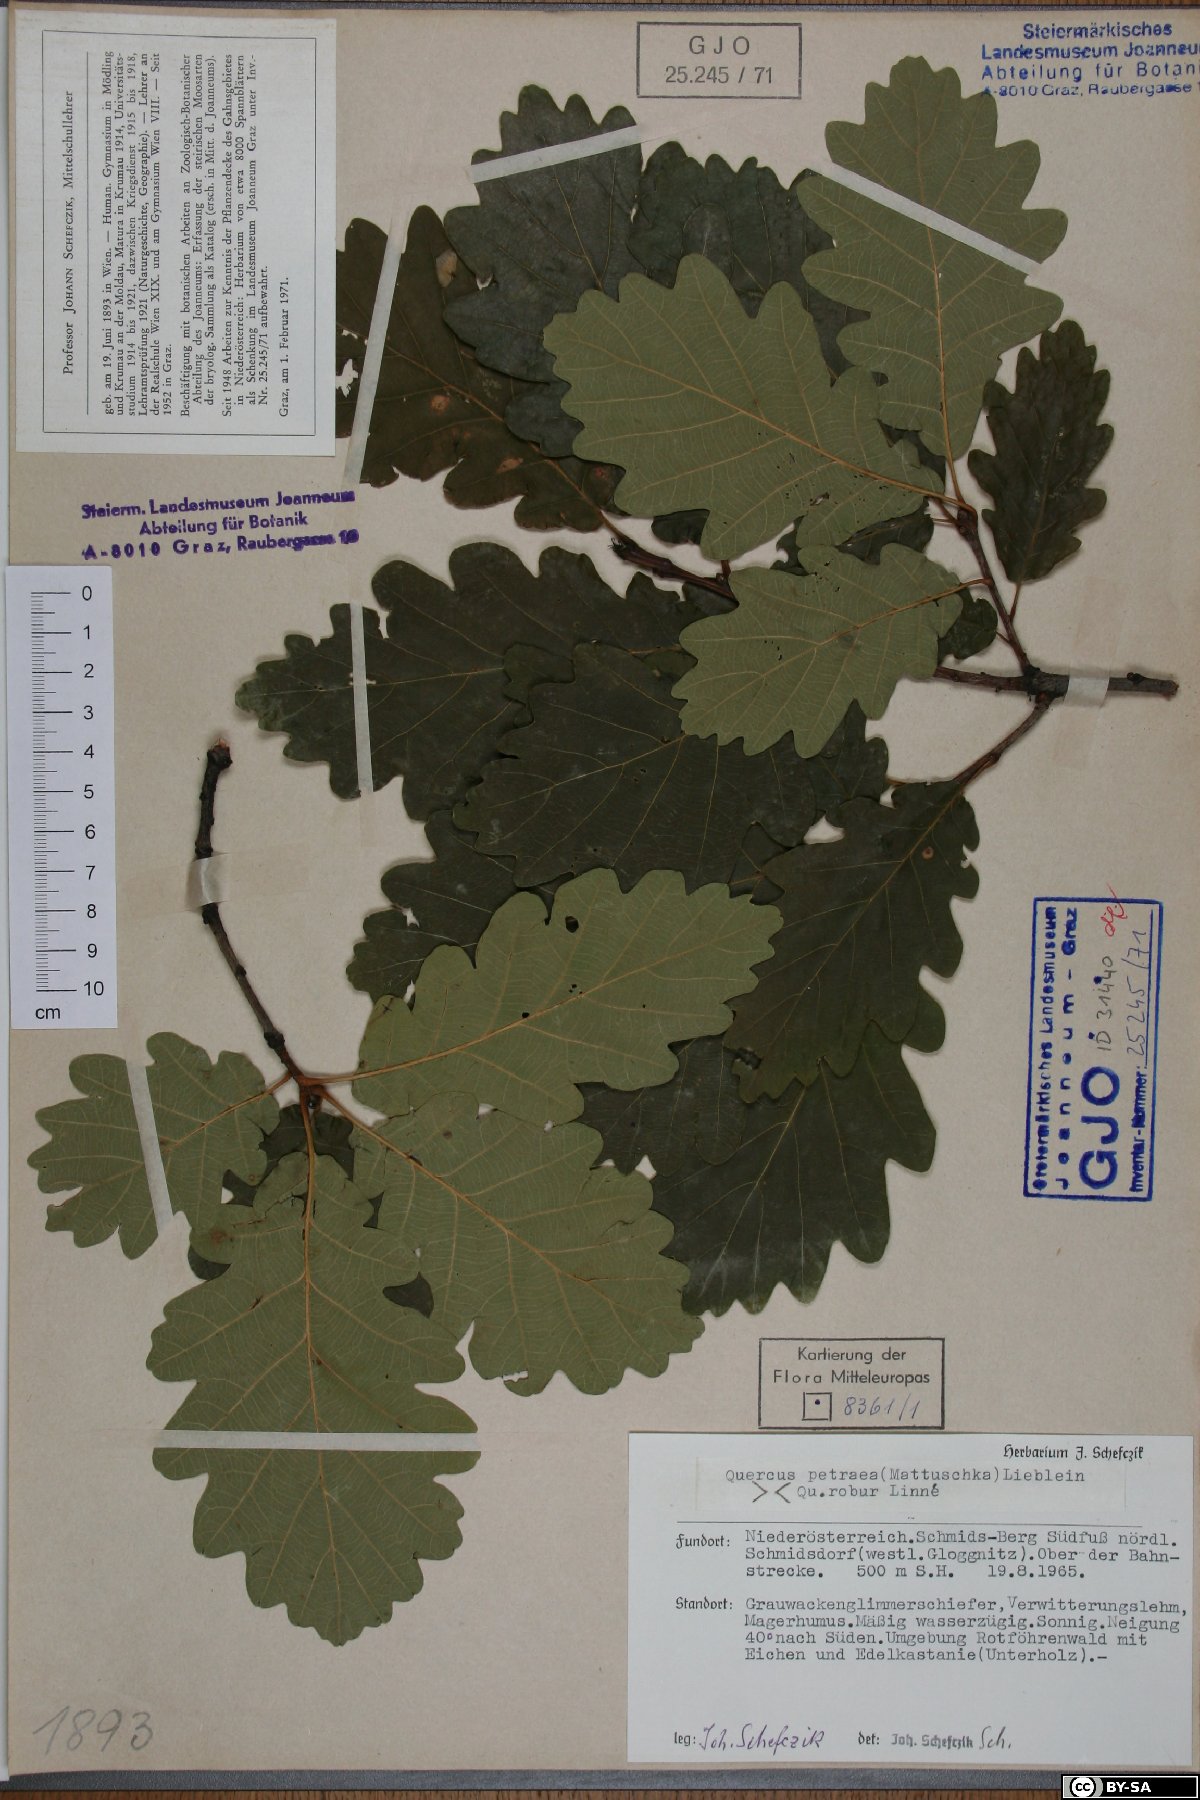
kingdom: Plantae
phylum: Tracheophyta
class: Magnoliopsida
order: Fagales
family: Fagaceae
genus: Quercus
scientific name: Quercus petraea
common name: Sessile oak
